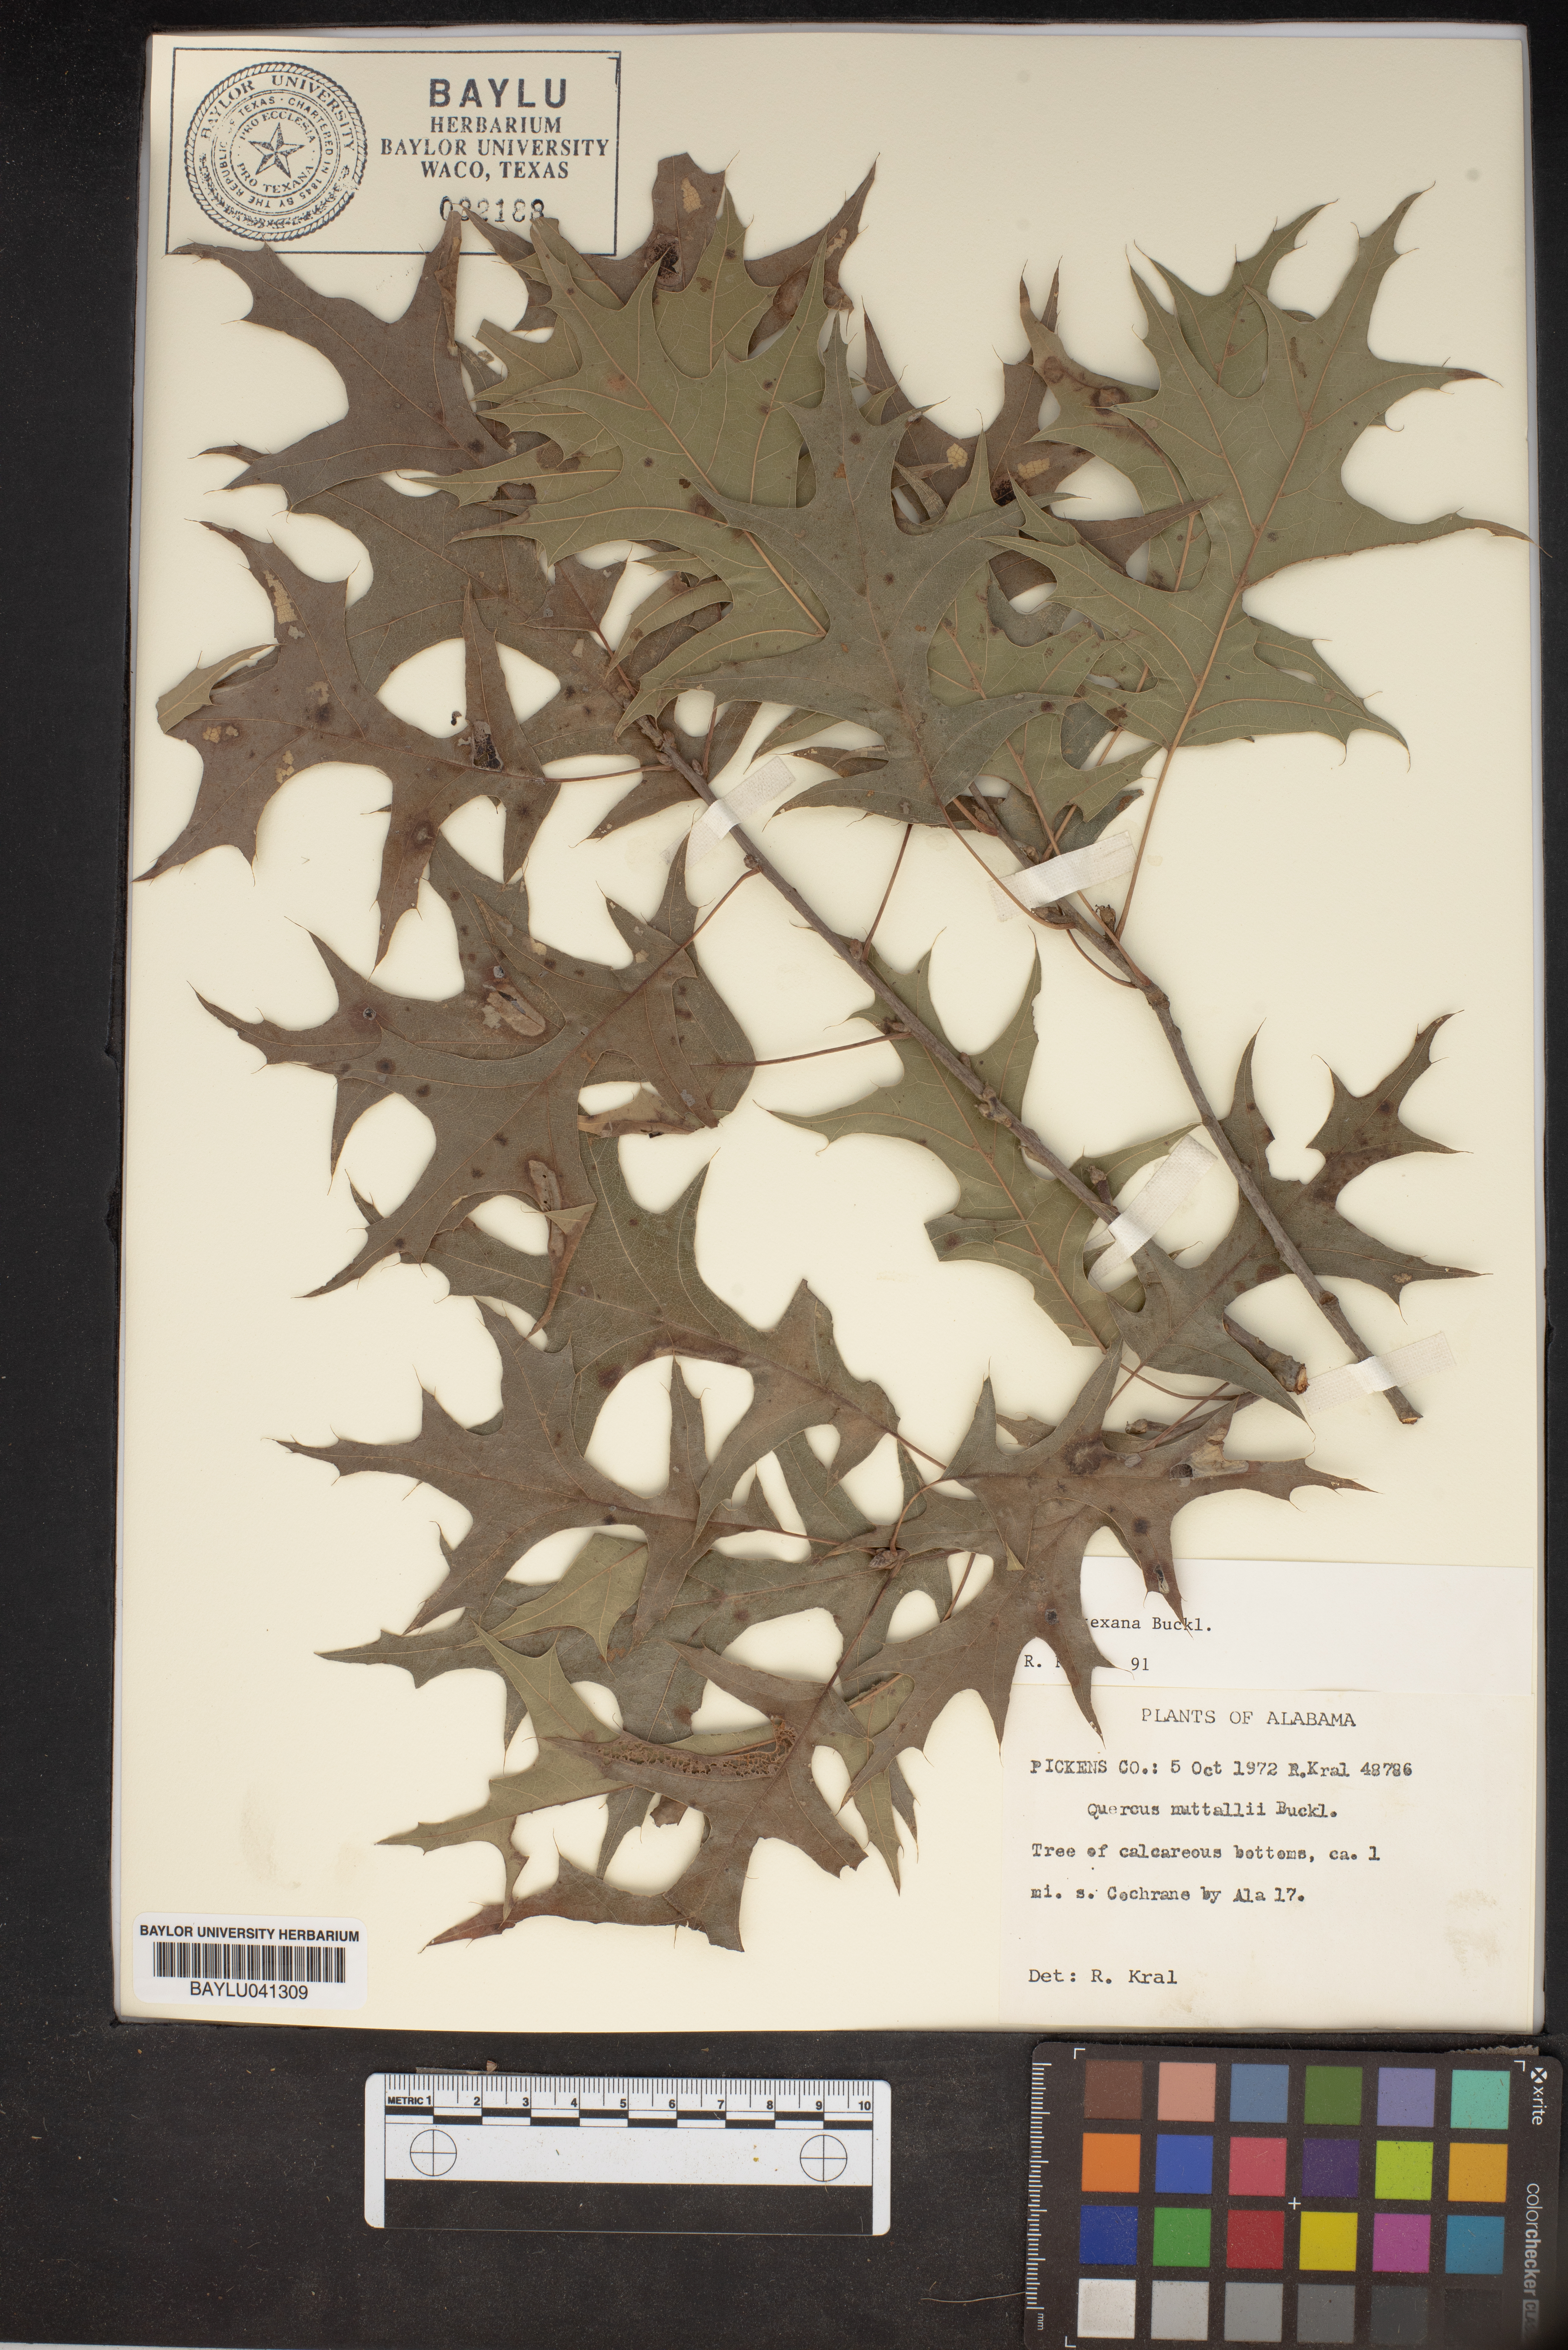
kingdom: Plantae
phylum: Tracheophyta
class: Magnoliopsida
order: Fagales
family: Fagaceae
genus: Quercus
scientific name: Quercus texana
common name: Nuttall oak
